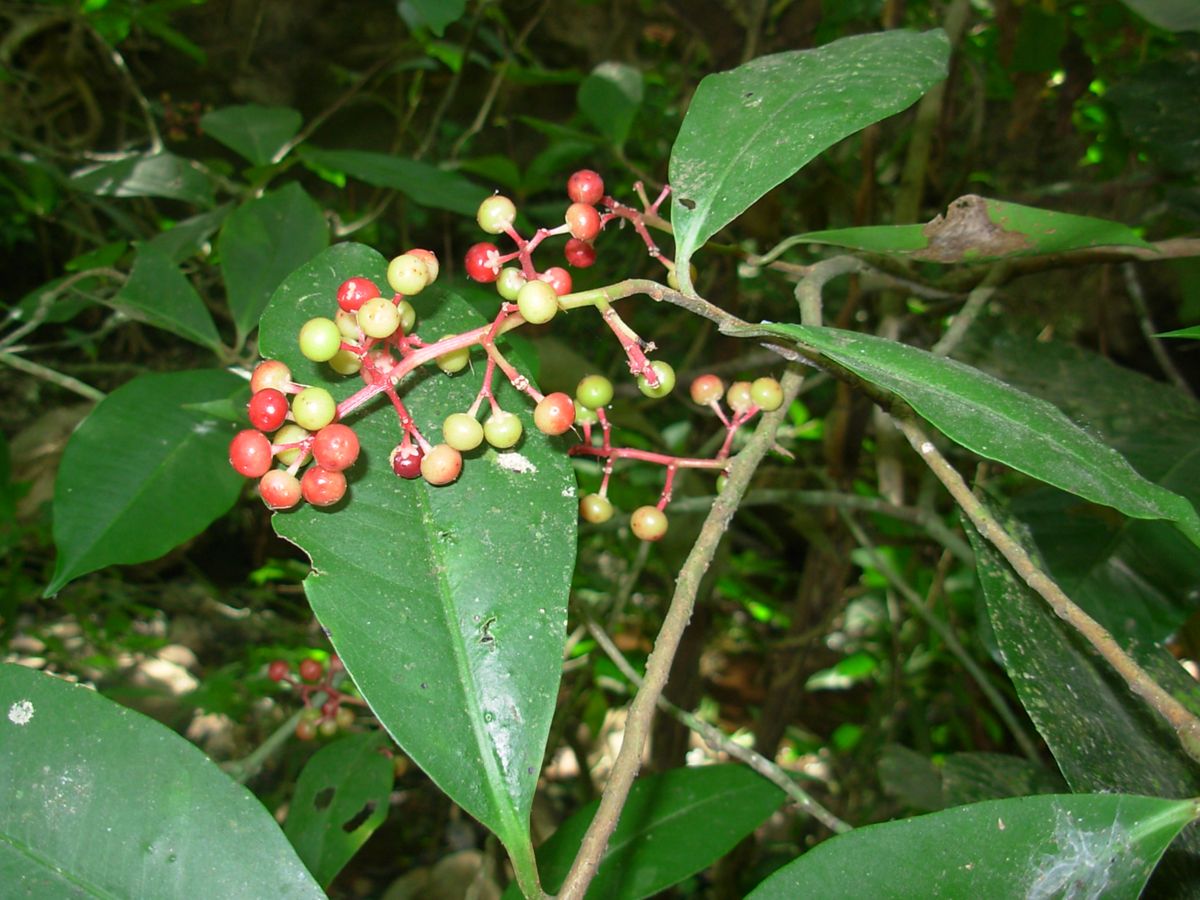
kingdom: Plantae
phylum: Tracheophyta
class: Magnoliopsida
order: Ericales
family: Primulaceae
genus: Ardisia
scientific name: Ardisia compressa
